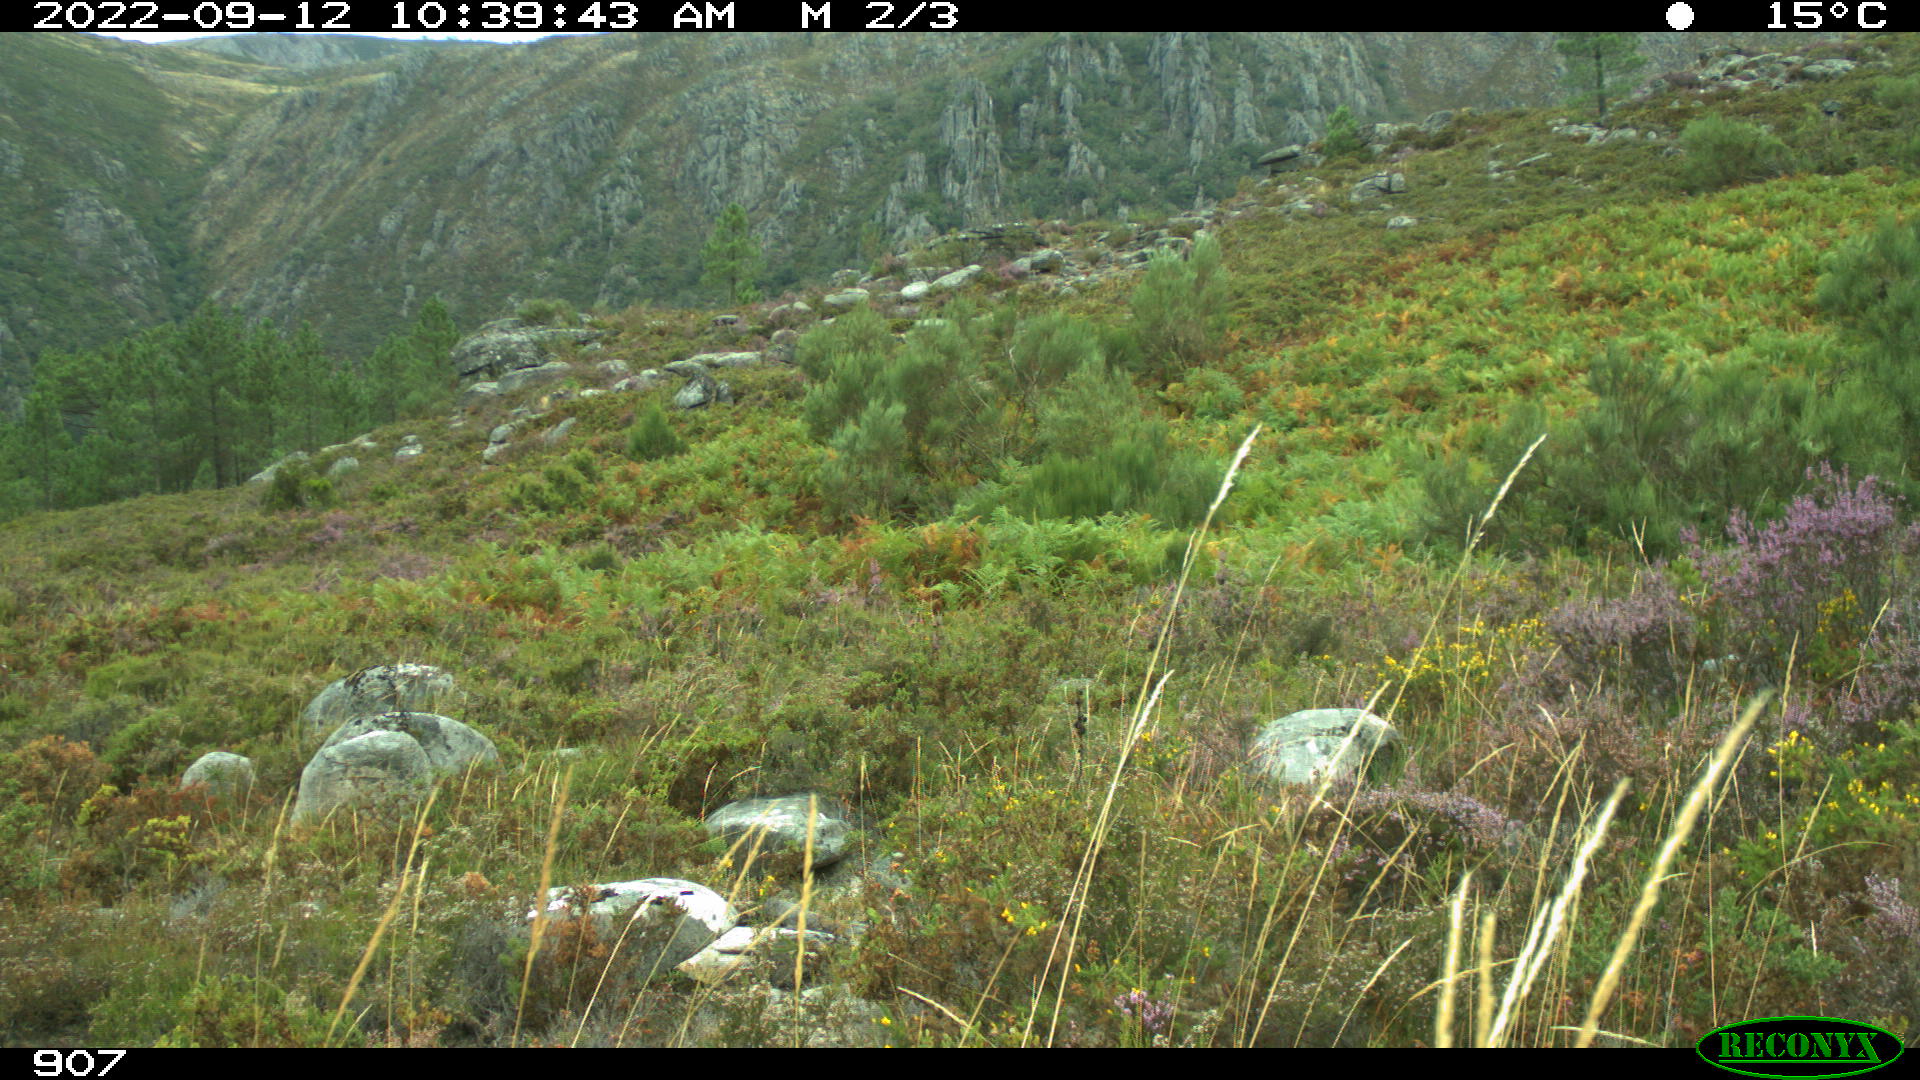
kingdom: Animalia
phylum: Chordata
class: Mammalia
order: Artiodactyla
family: Bovidae
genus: Bos
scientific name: Bos taurus
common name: Domesticated cattle
